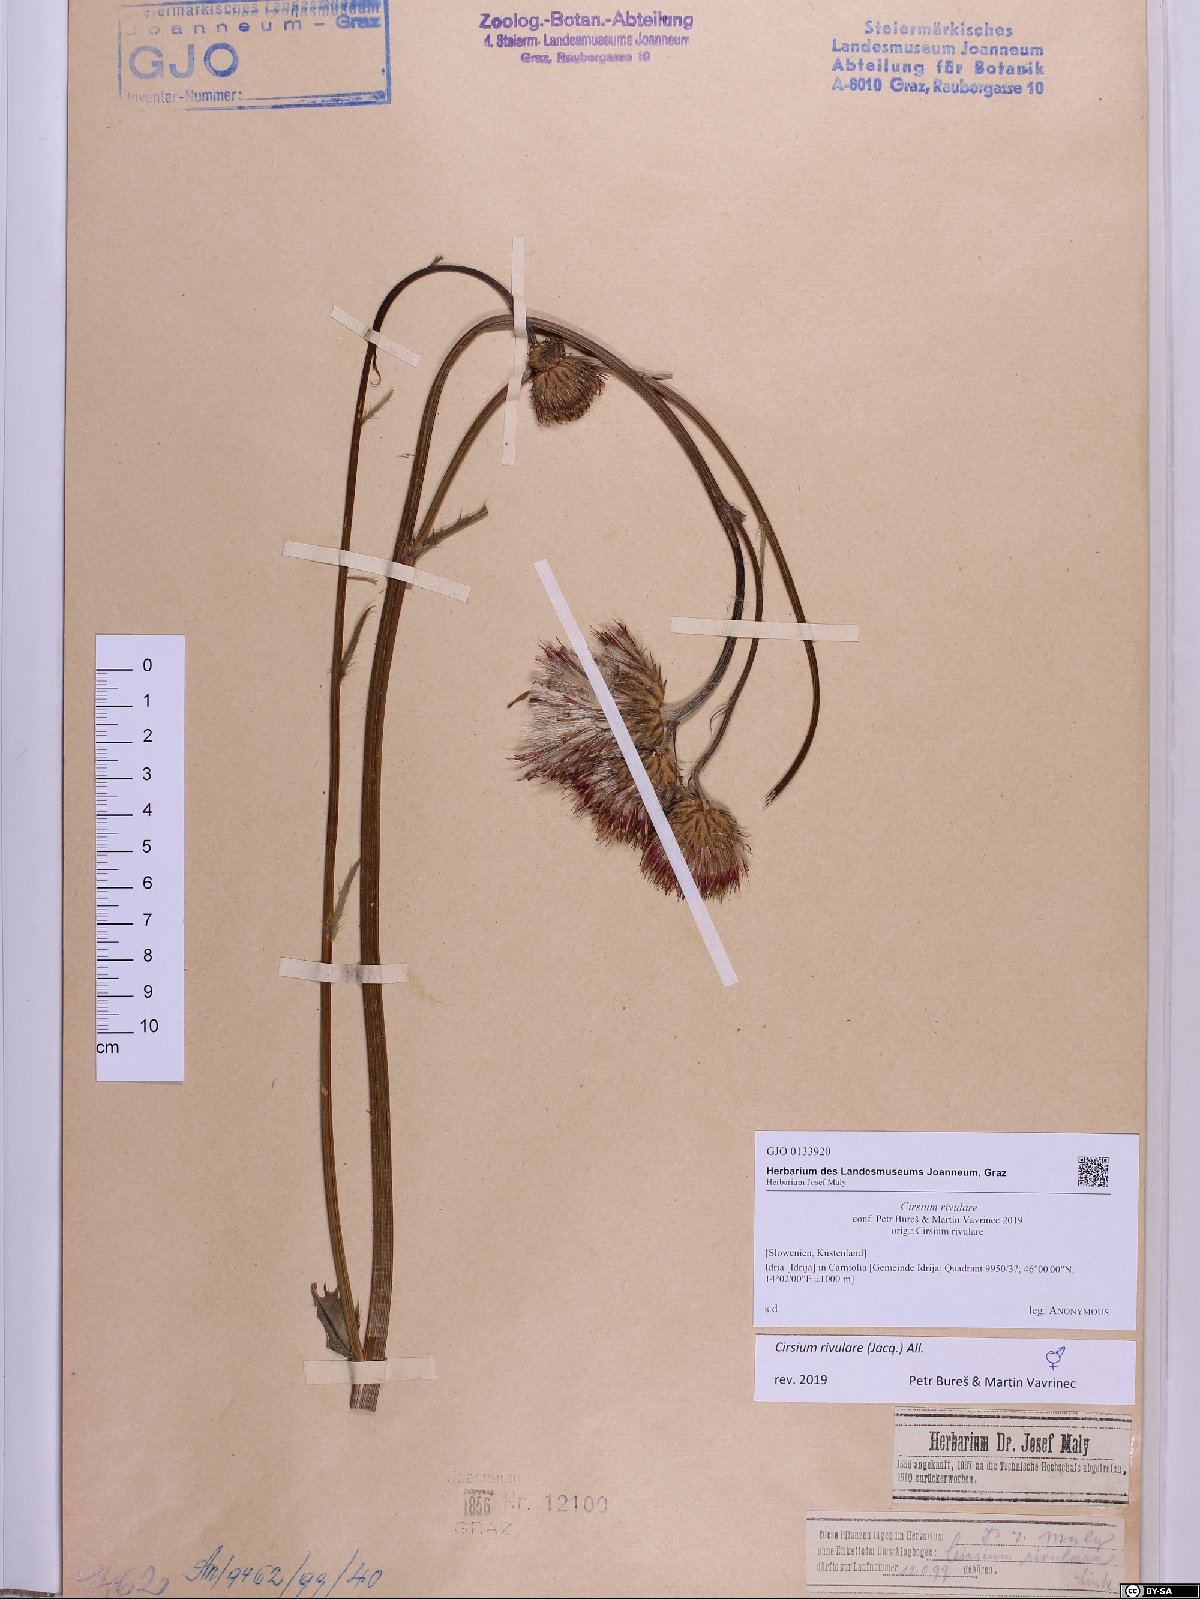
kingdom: Plantae
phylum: Tracheophyta
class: Magnoliopsida
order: Asterales
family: Asteraceae
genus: Cirsium
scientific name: Cirsium rivulare
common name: Brook thistle
